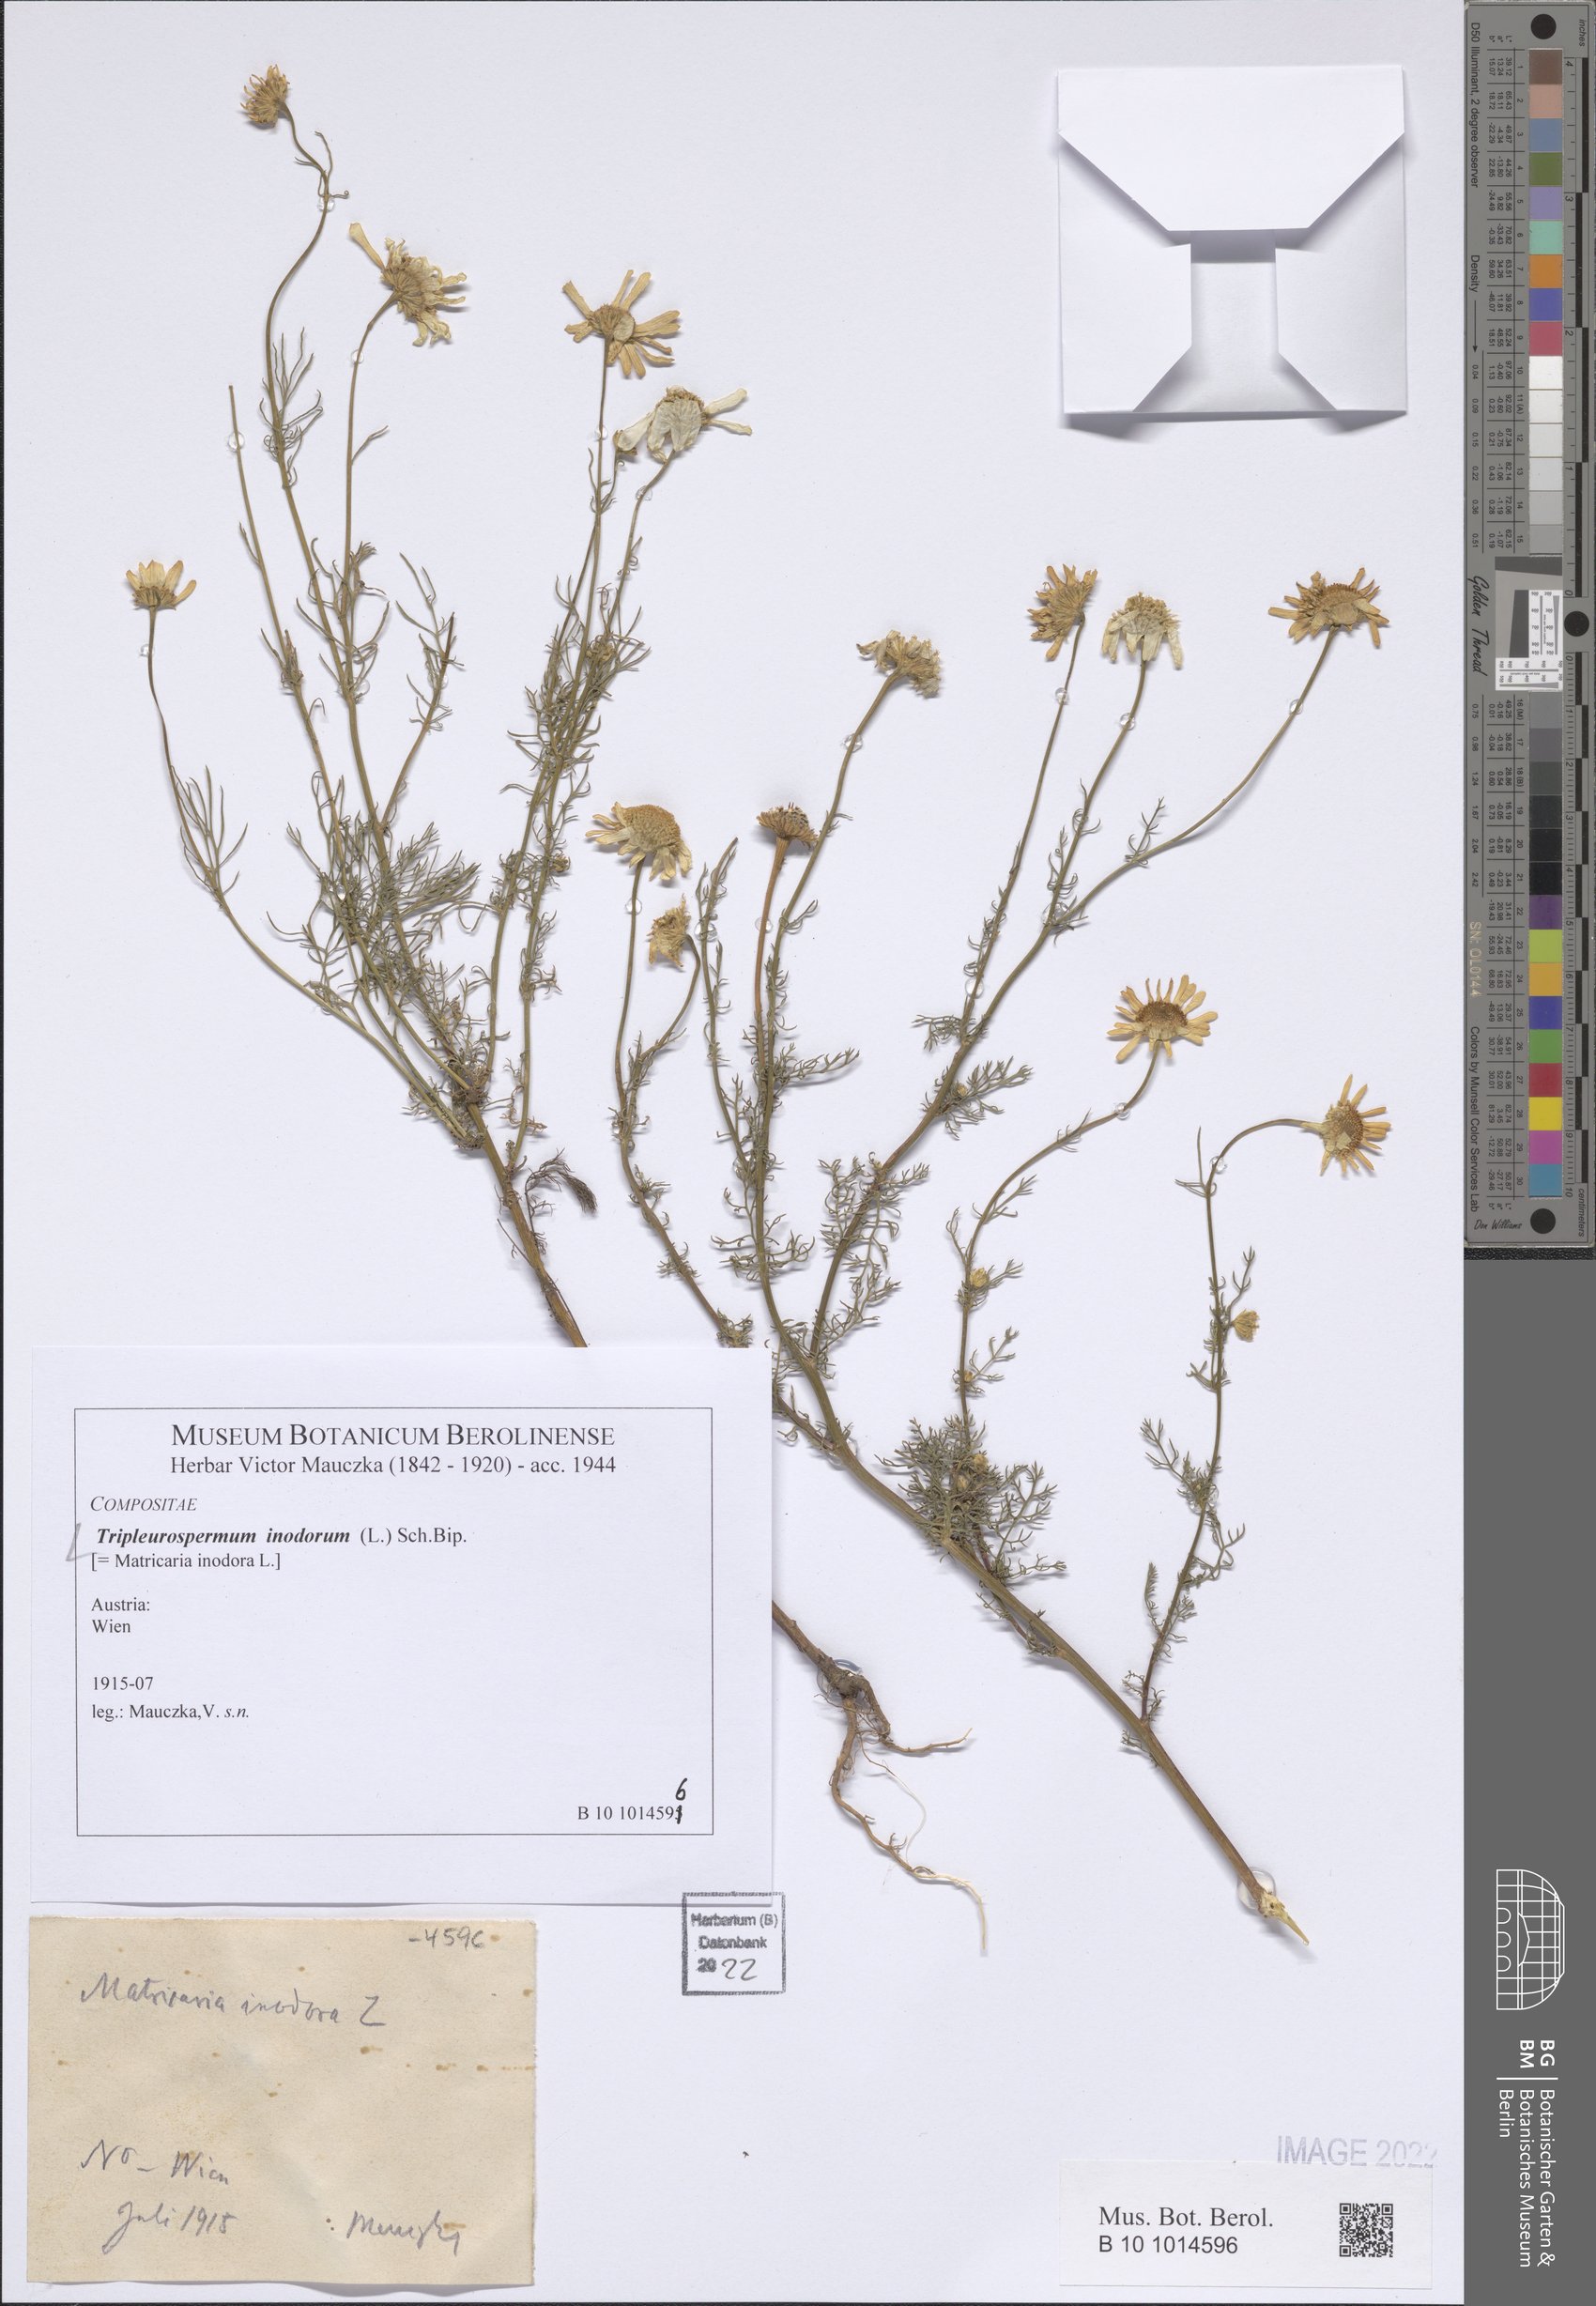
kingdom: Plantae
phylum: Tracheophyta
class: Magnoliopsida
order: Asterales
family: Asteraceae
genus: Tripleurospermum
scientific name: Tripleurospermum inodorum
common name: Scentless mayweed
